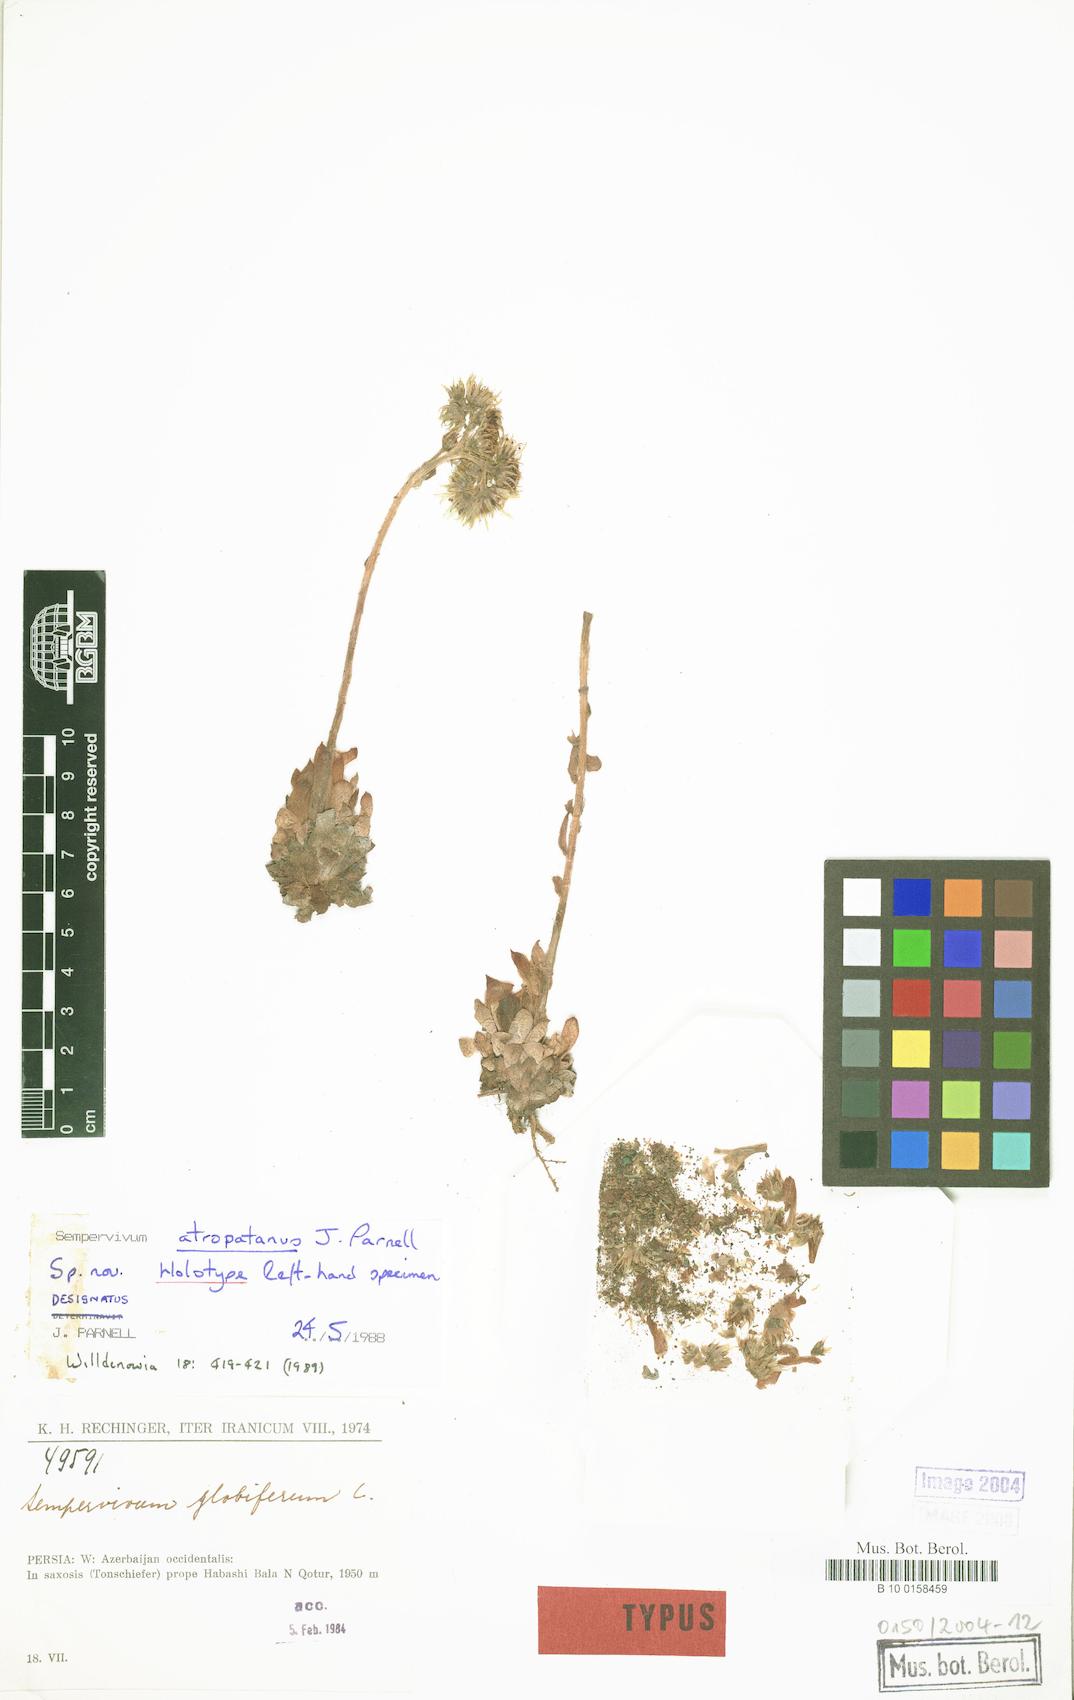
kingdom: Plantae
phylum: Tracheophyta
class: Magnoliopsida
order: Saxifragales
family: Crassulaceae
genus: Sempervivum
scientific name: Sempervivum atropatanum
